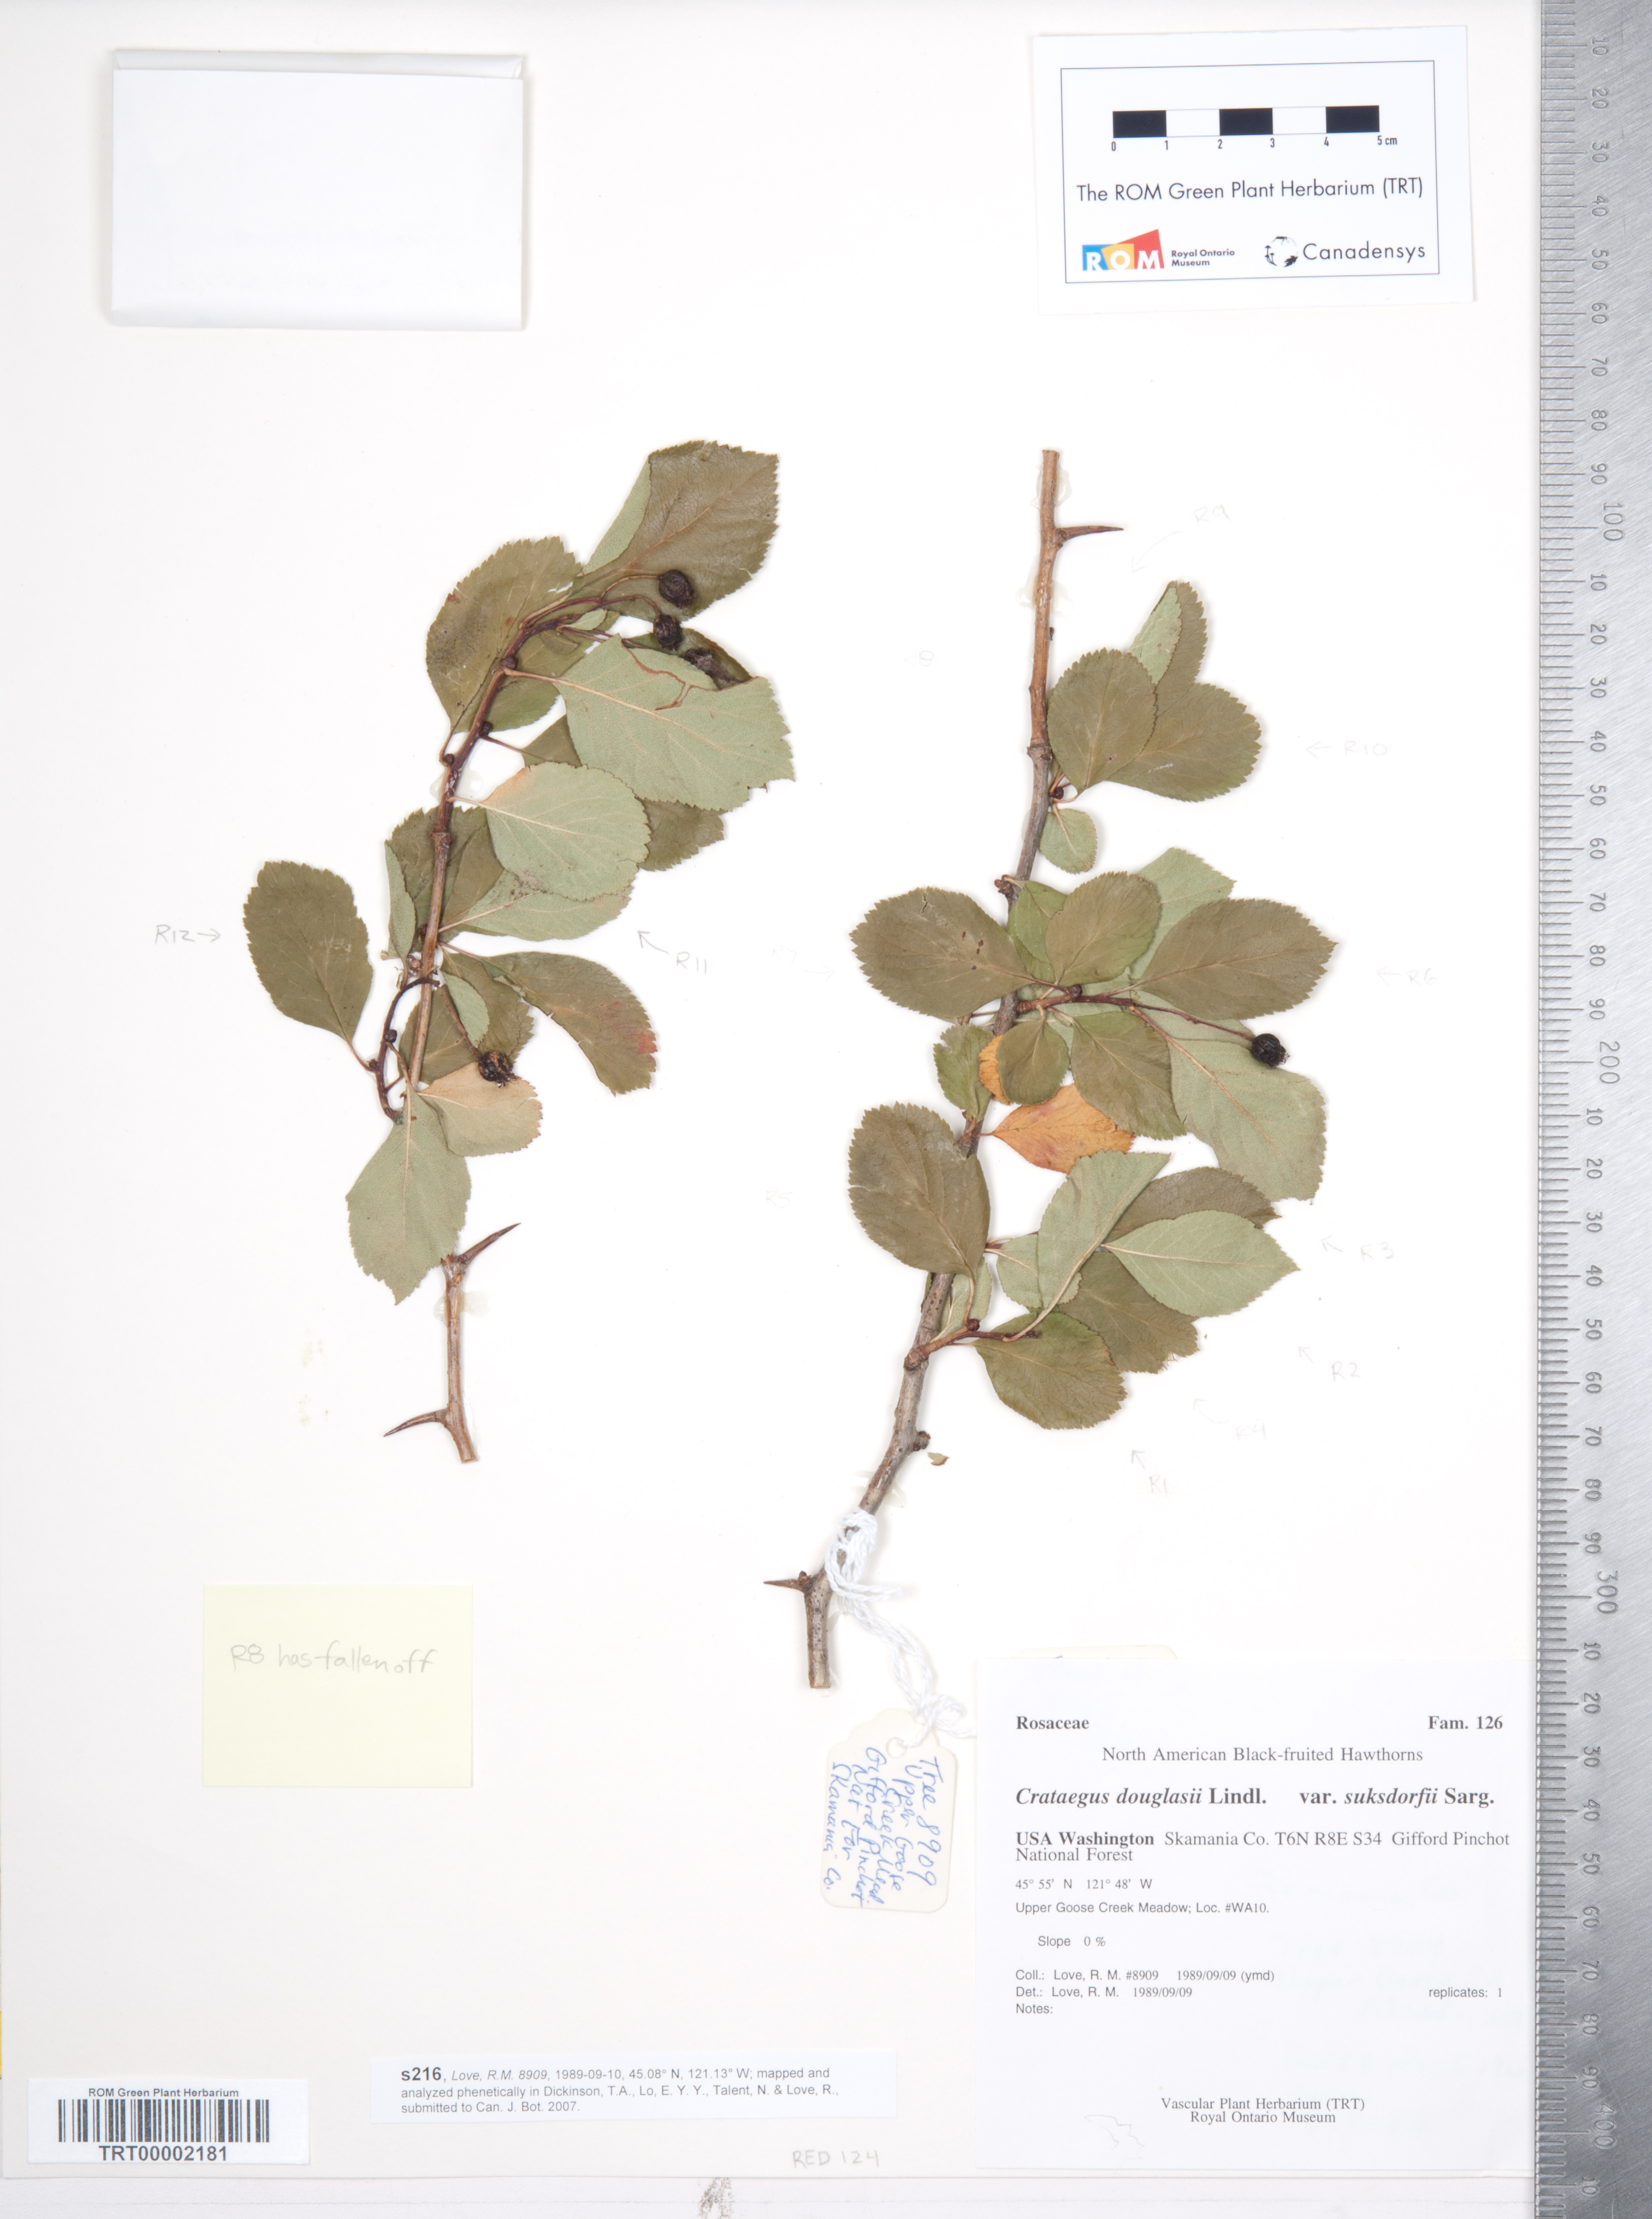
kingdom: Plantae
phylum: Tracheophyta
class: Magnoliopsida
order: Rosales
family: Rosaceae
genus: Crataegus
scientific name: Crataegus douglasii
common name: Black hawthorn
